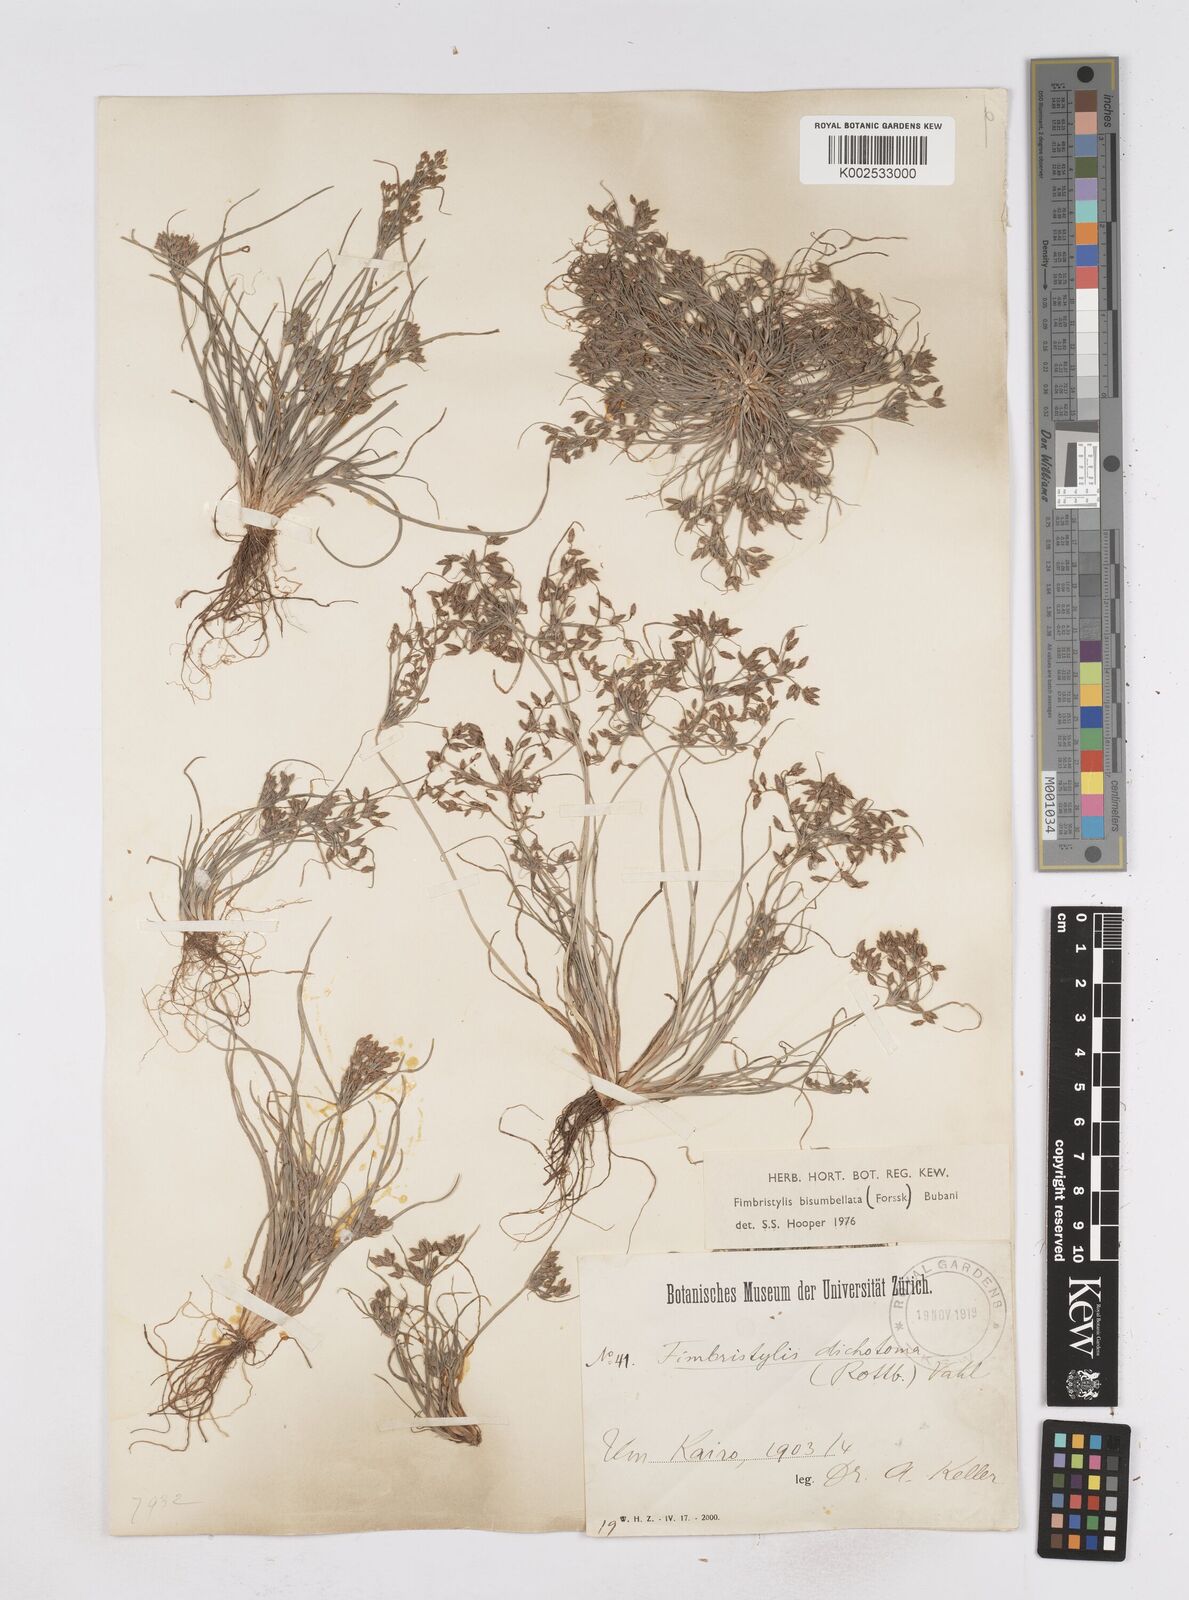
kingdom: Plantae
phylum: Tracheophyta
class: Liliopsida
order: Poales
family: Cyperaceae
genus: Fimbristylis
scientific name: Fimbristylis bisumbellata
